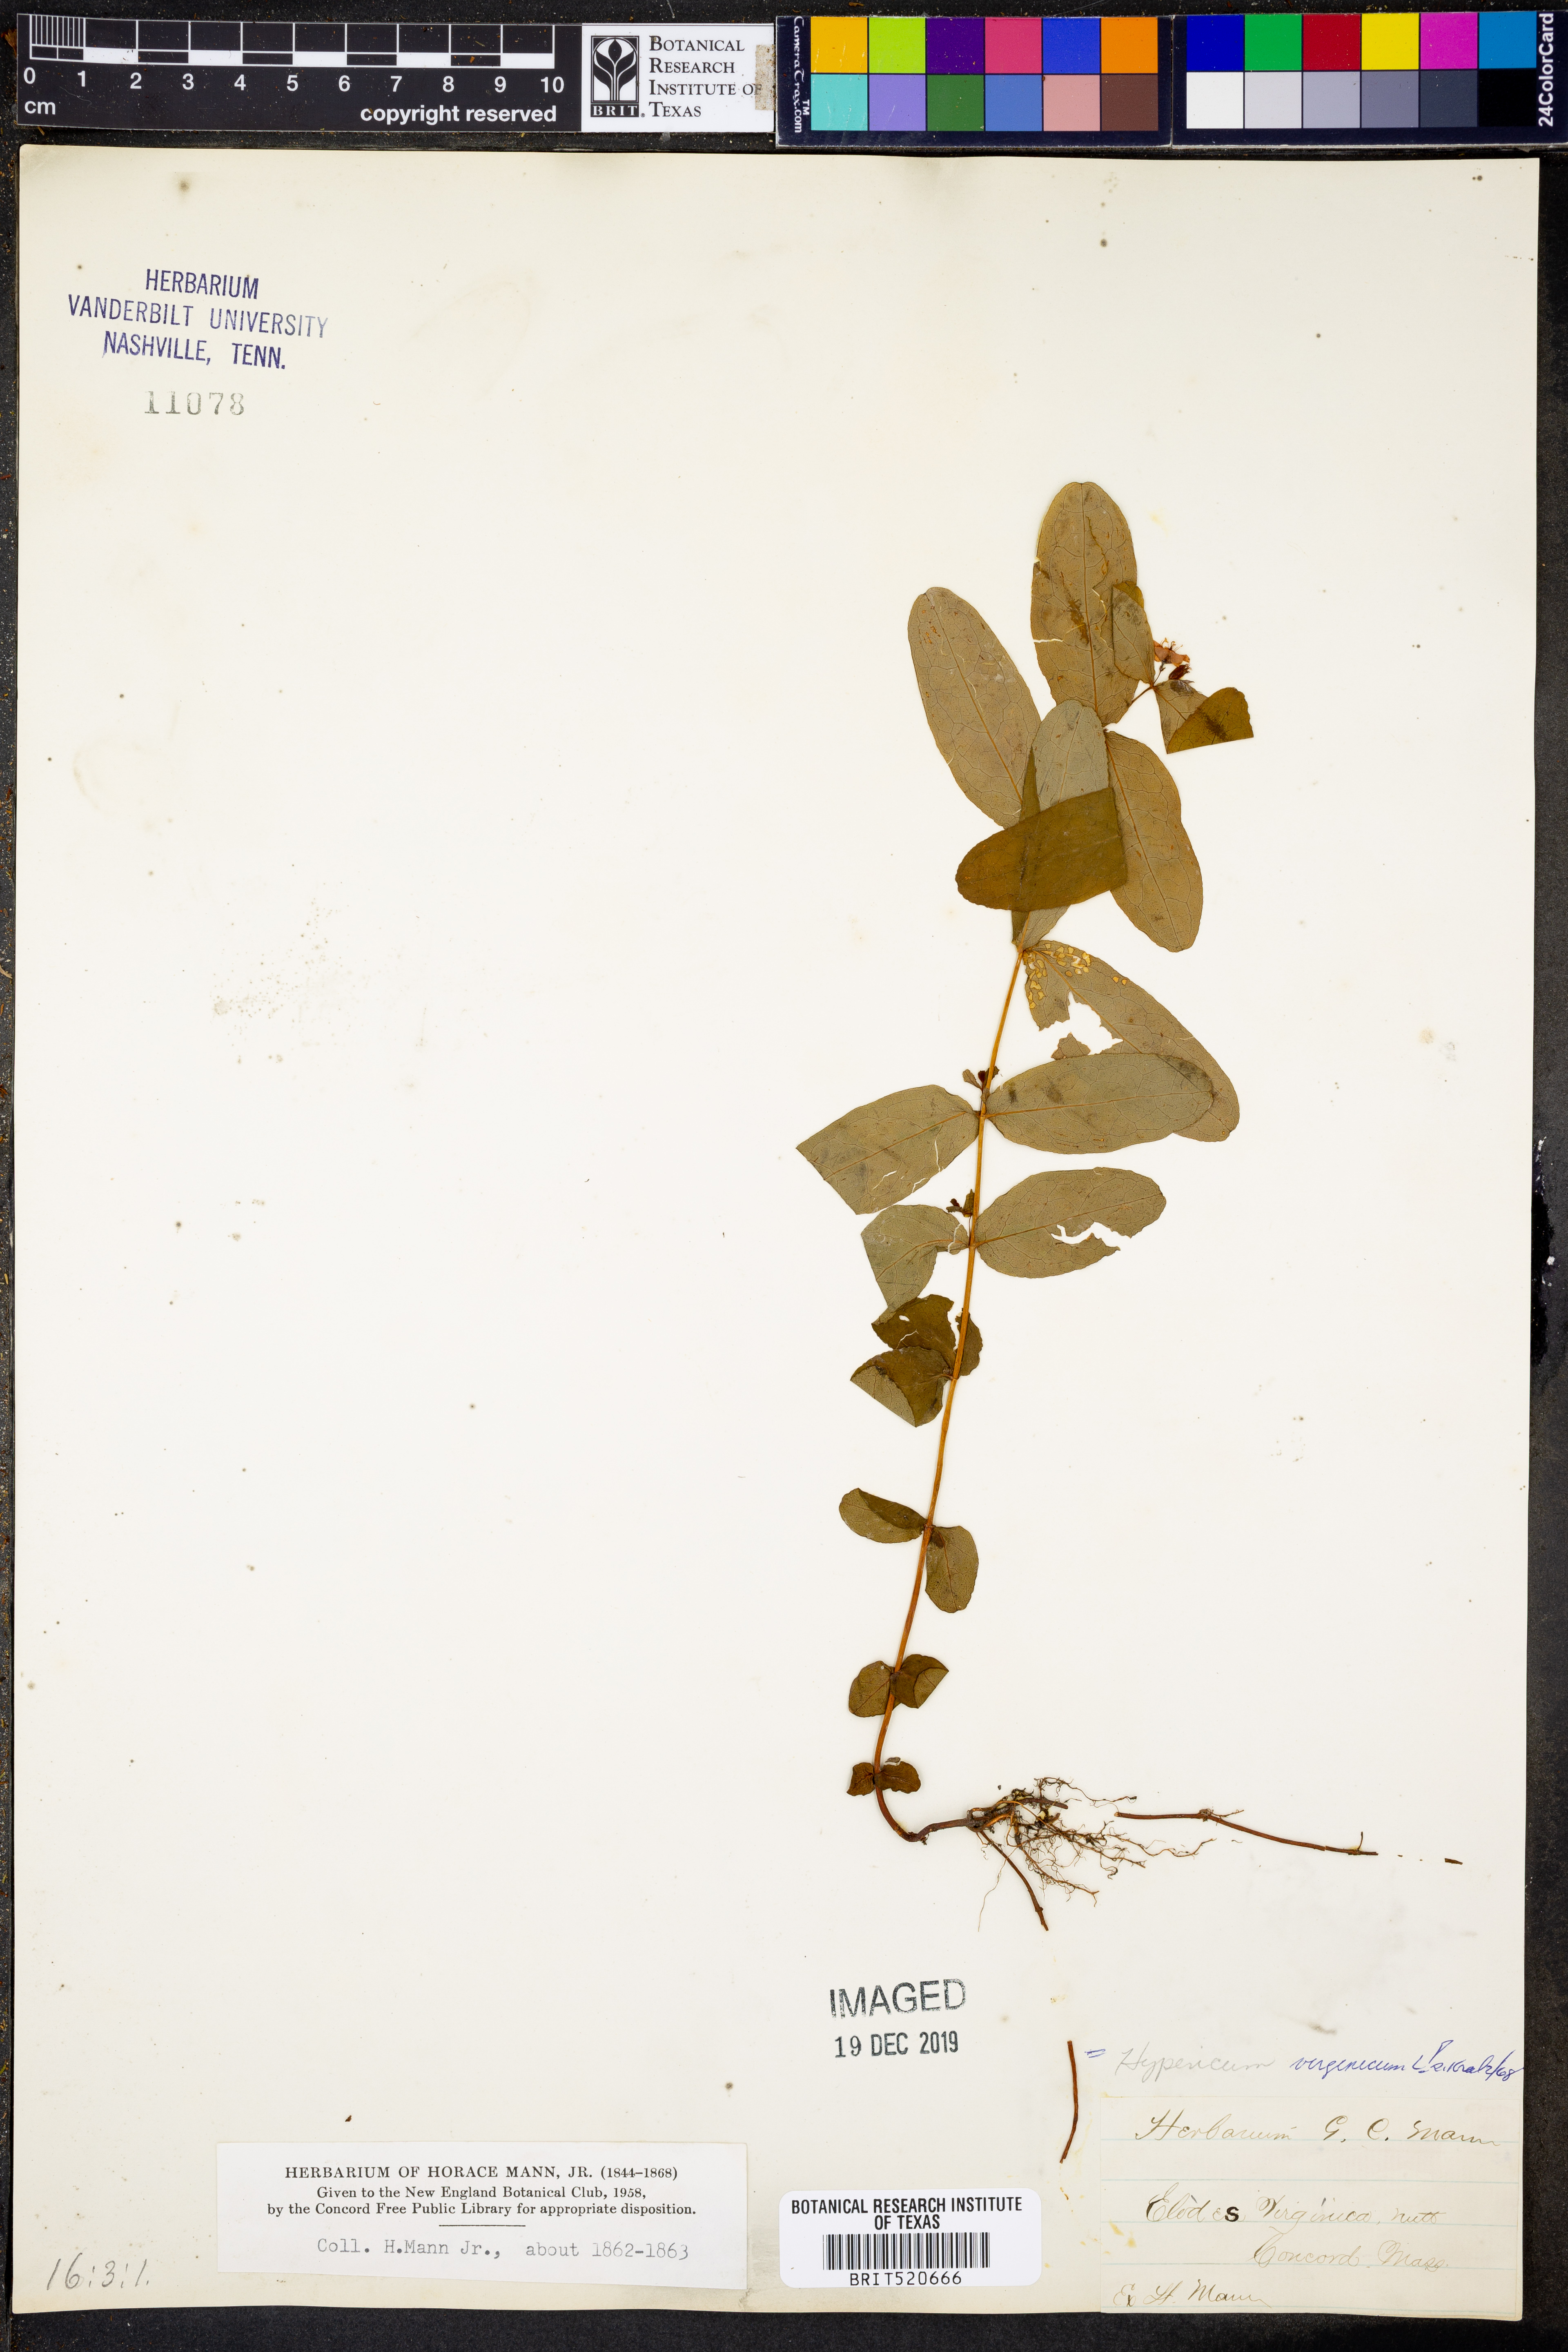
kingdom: Plantae
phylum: Tracheophyta
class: Magnoliopsida
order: Malpighiales
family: Hypericaceae
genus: Triadenum
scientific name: Triadenum virginicum
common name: Marsh st. john's-wort
